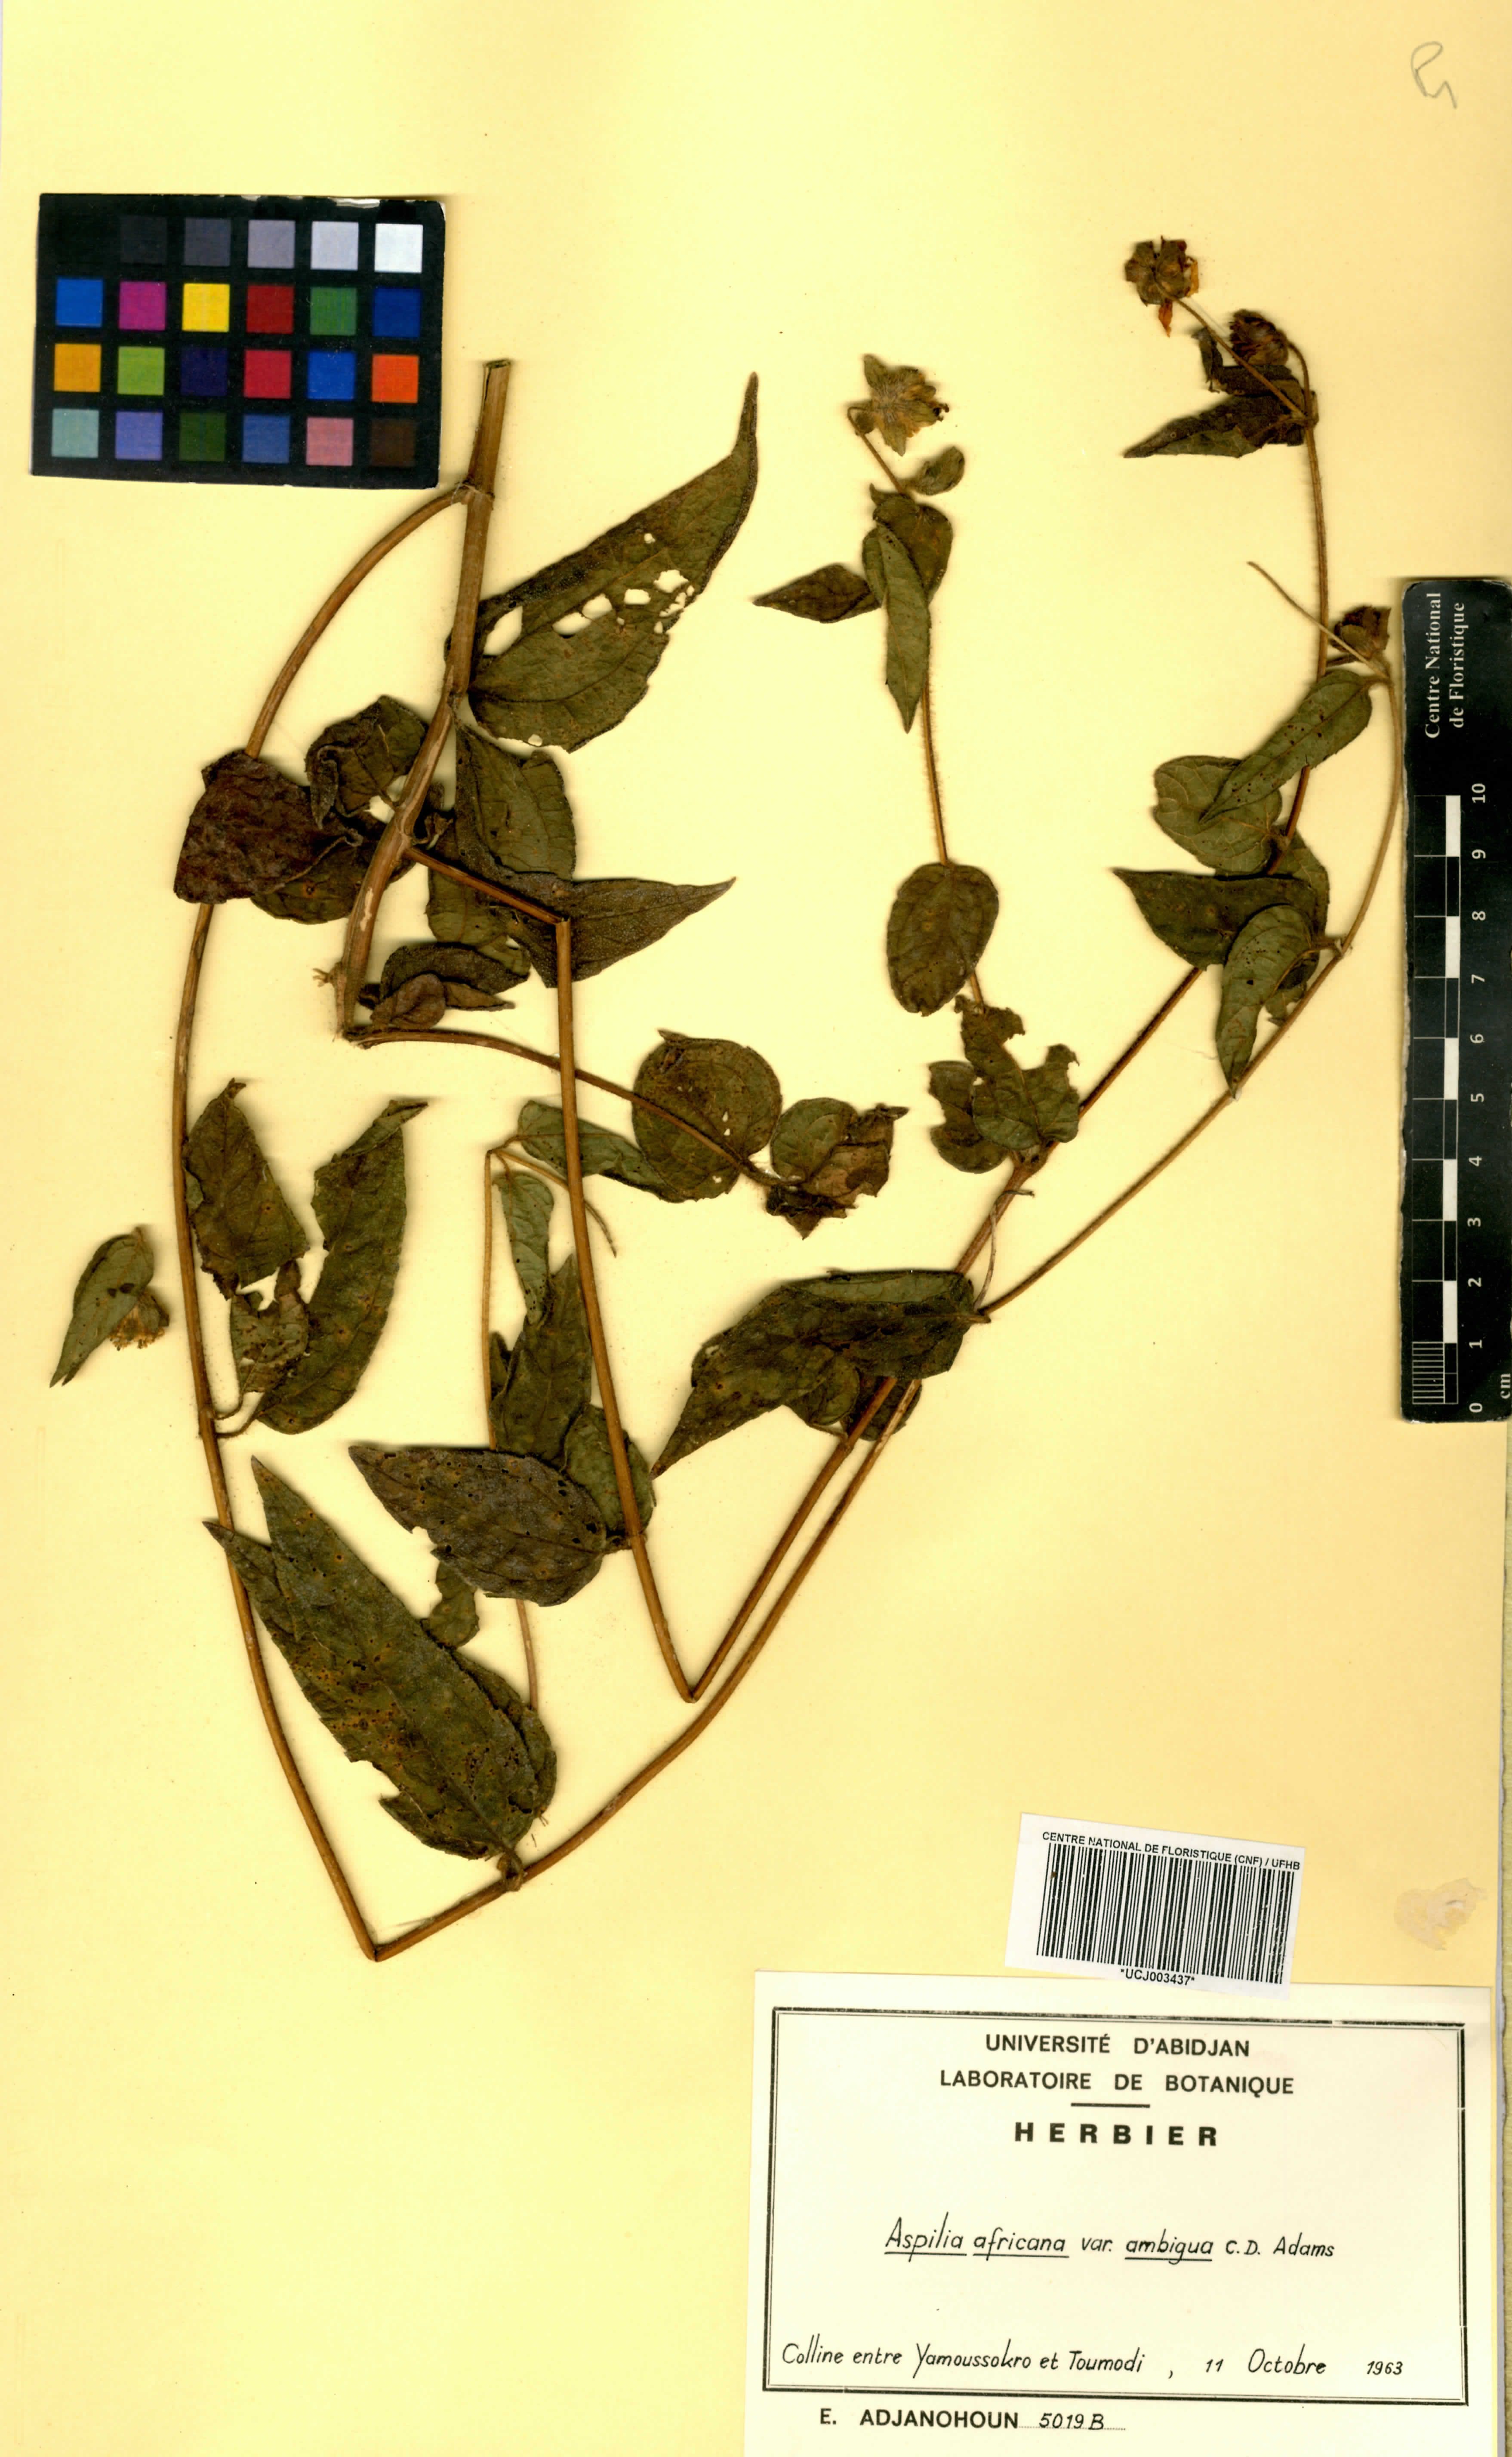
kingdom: Plantae
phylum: Tracheophyta
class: Magnoliopsida
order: Asterales
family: Asteraceae
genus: Aspilia
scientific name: Aspilia africana
